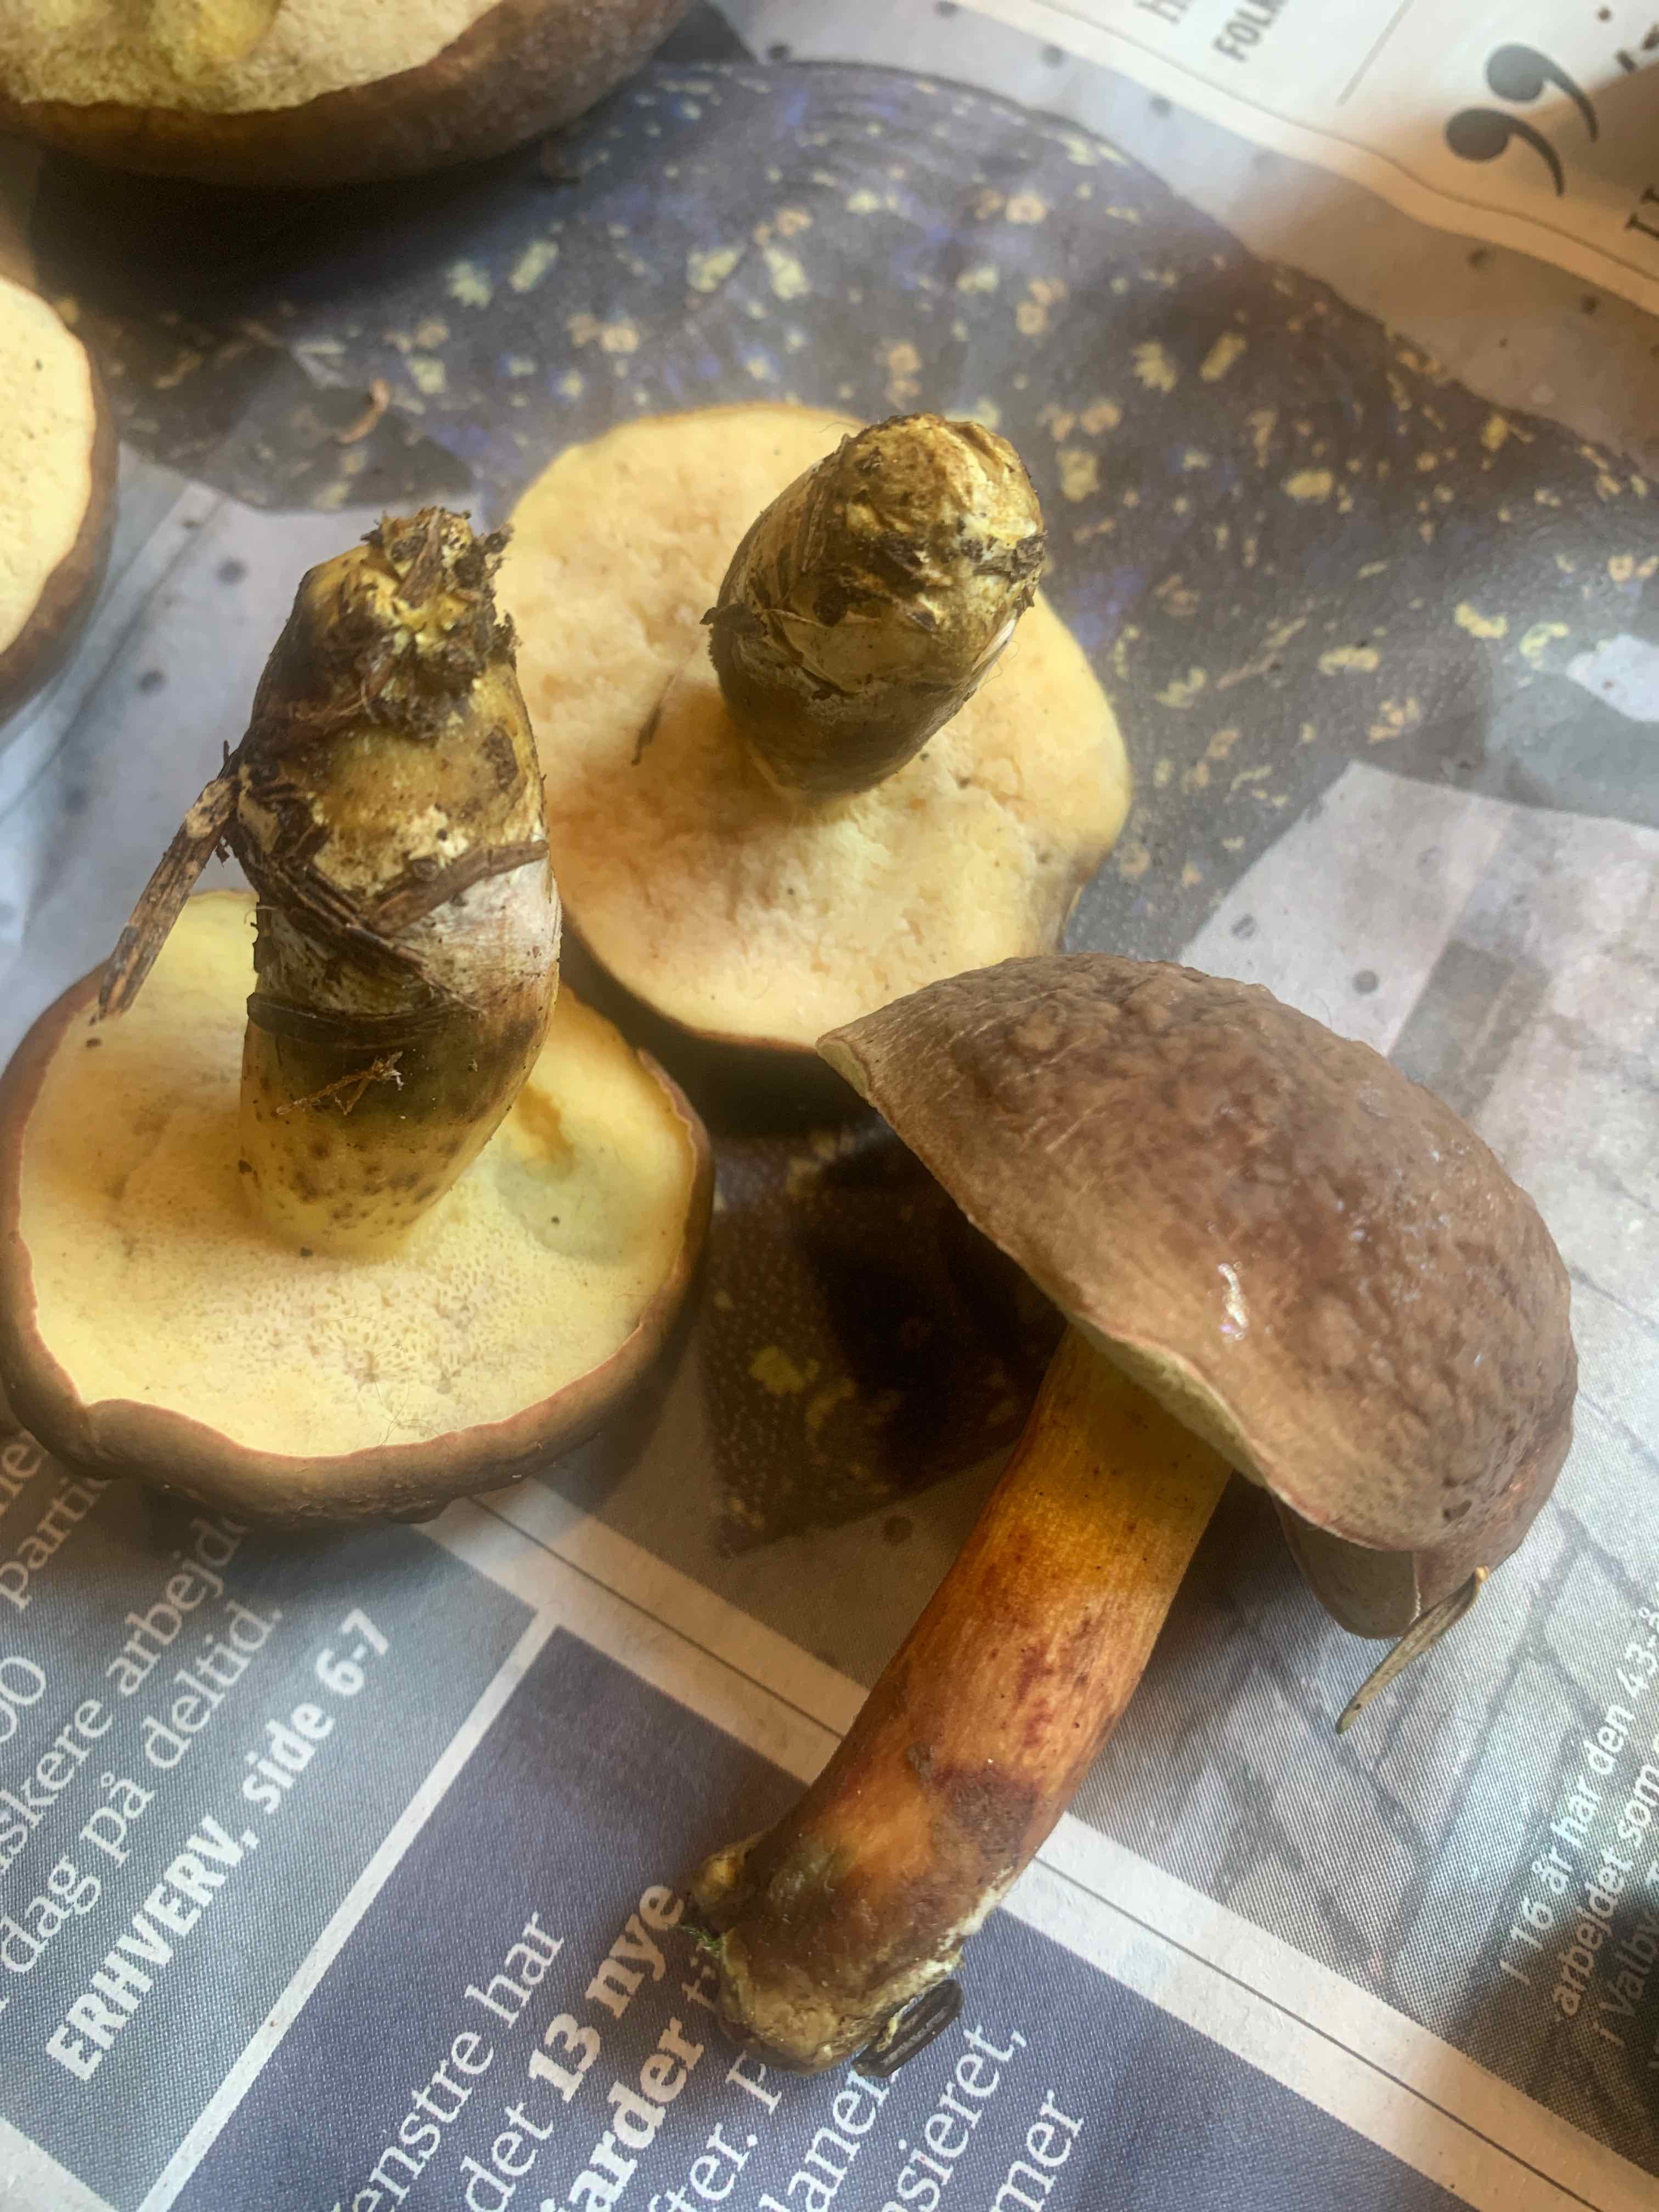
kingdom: Fungi
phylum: Basidiomycota
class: Agaricomycetes
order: Boletales
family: Boletaceae
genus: Xerocomellus
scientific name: Xerocomellus pruinatus
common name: dugget rørhat
